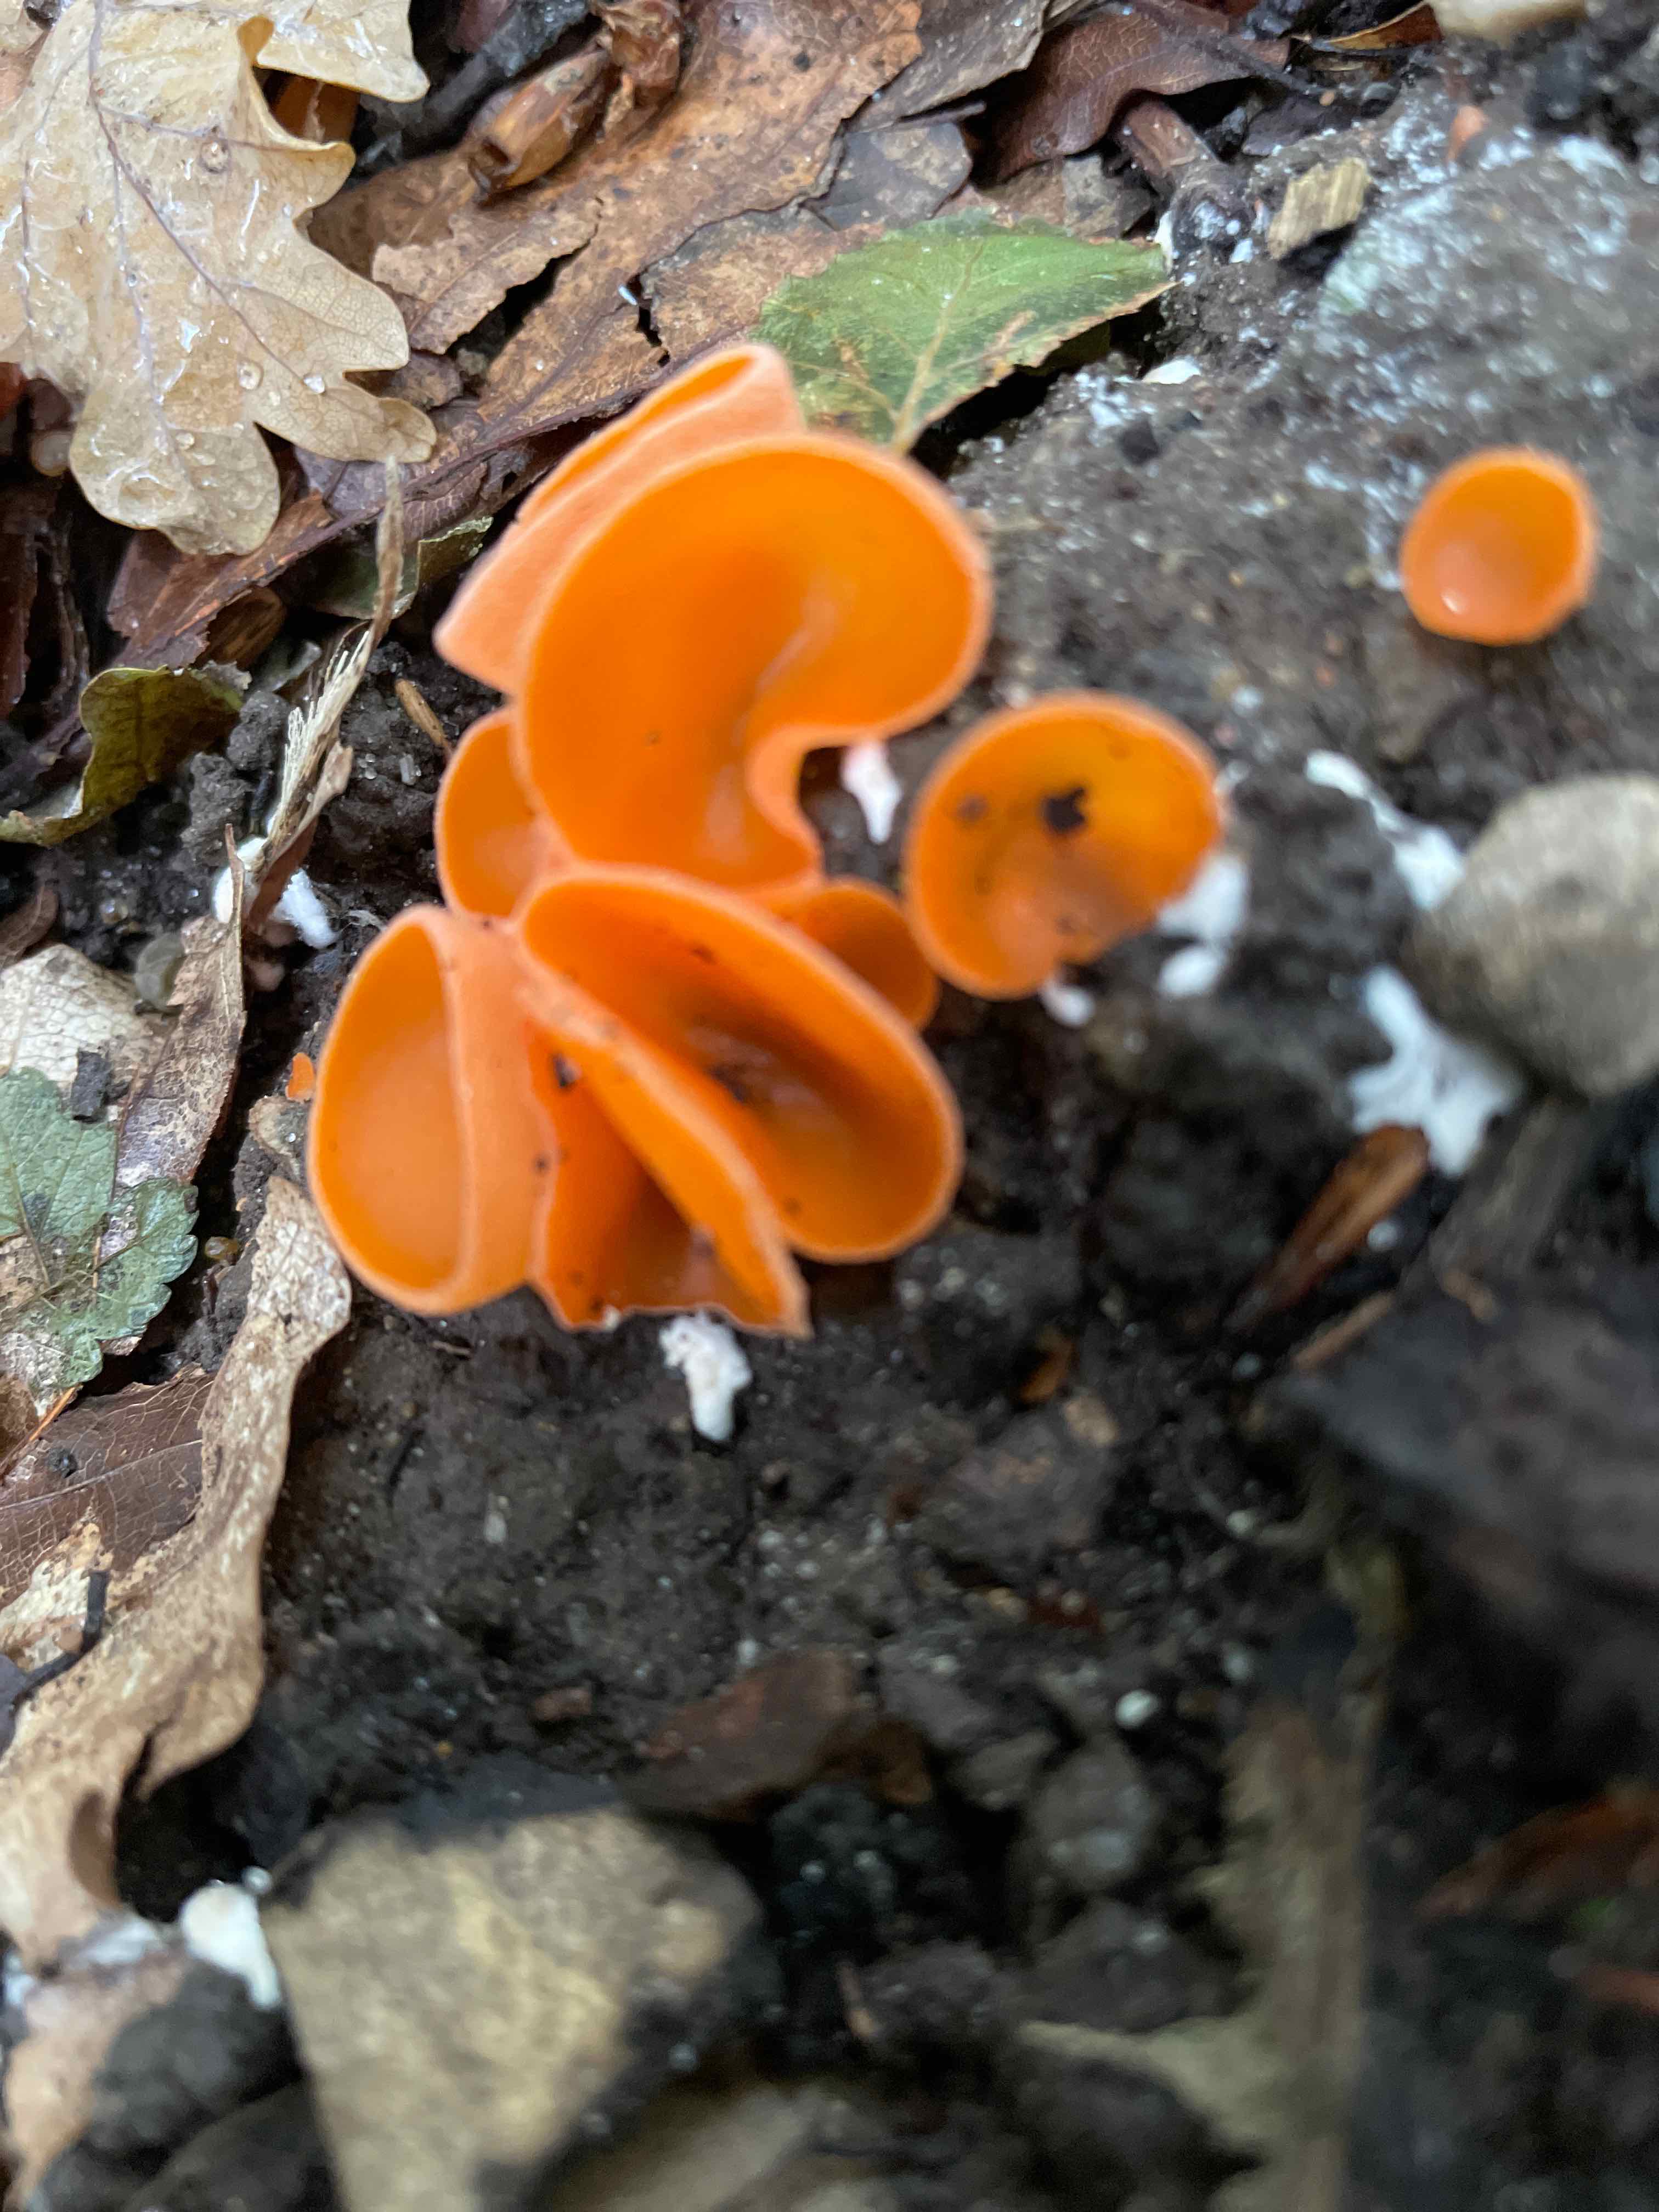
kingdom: Fungi
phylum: Ascomycota
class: Pezizomycetes
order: Pezizales
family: Pyronemataceae
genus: Aleuria
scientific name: Aleuria aurantia
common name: almindelig orangebæger
